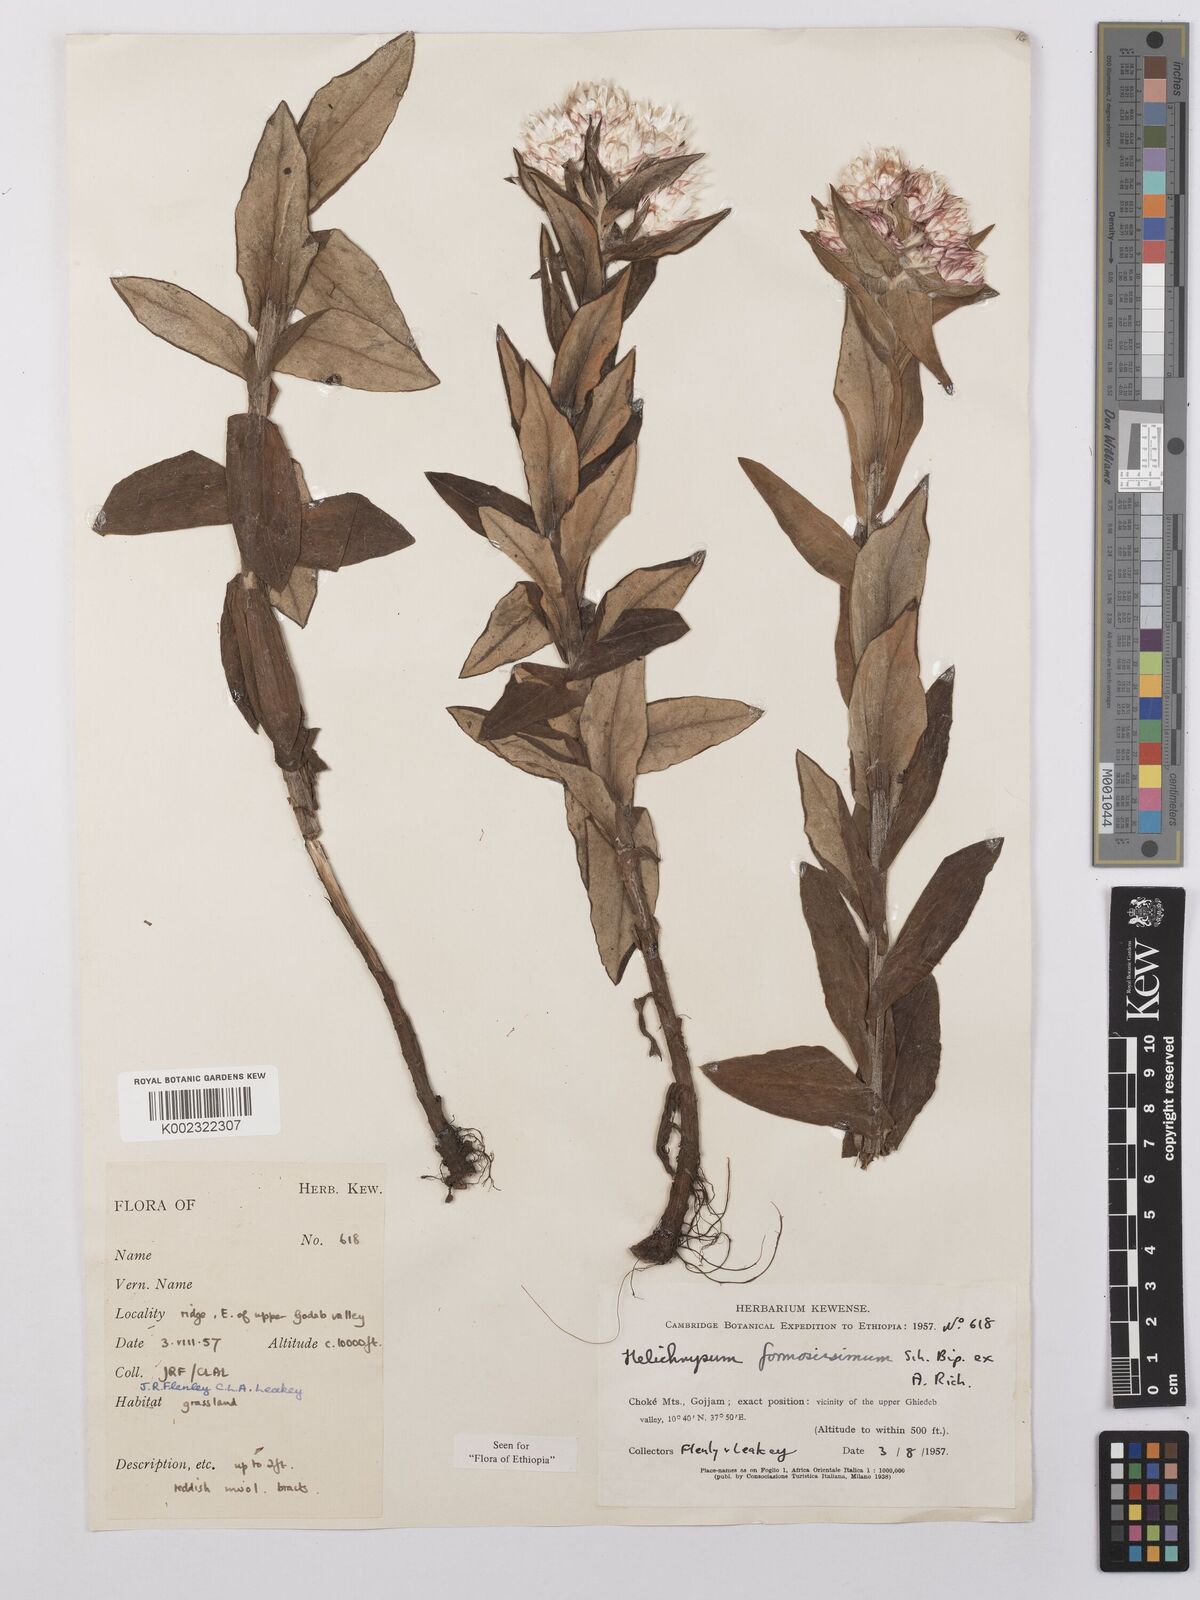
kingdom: Plantae
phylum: Tracheophyta
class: Magnoliopsida
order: Asterales
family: Asteraceae
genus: Helichrysum
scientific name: Helichrysum formosissimum
